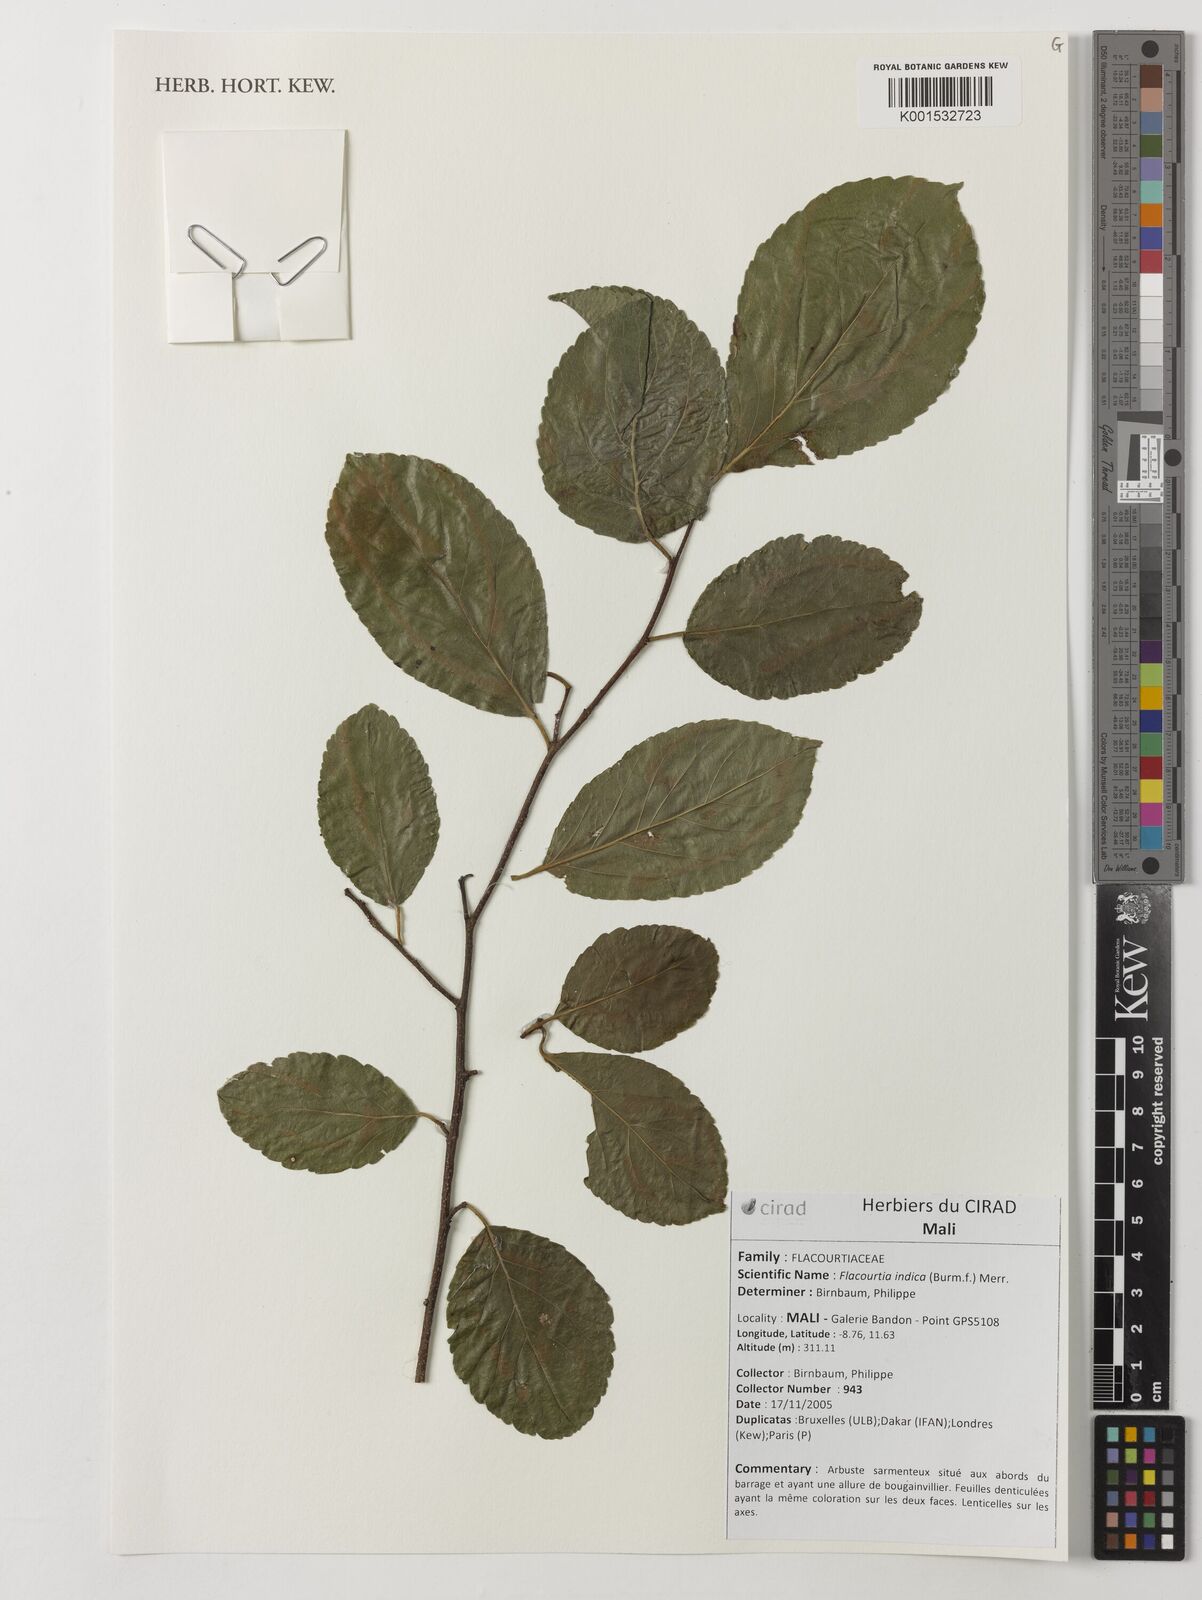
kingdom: Plantae
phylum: Tracheophyta
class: Magnoliopsida
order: Malpighiales
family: Salicaceae
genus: Flacourtia
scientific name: Flacourtia indica
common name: Governor's plum
